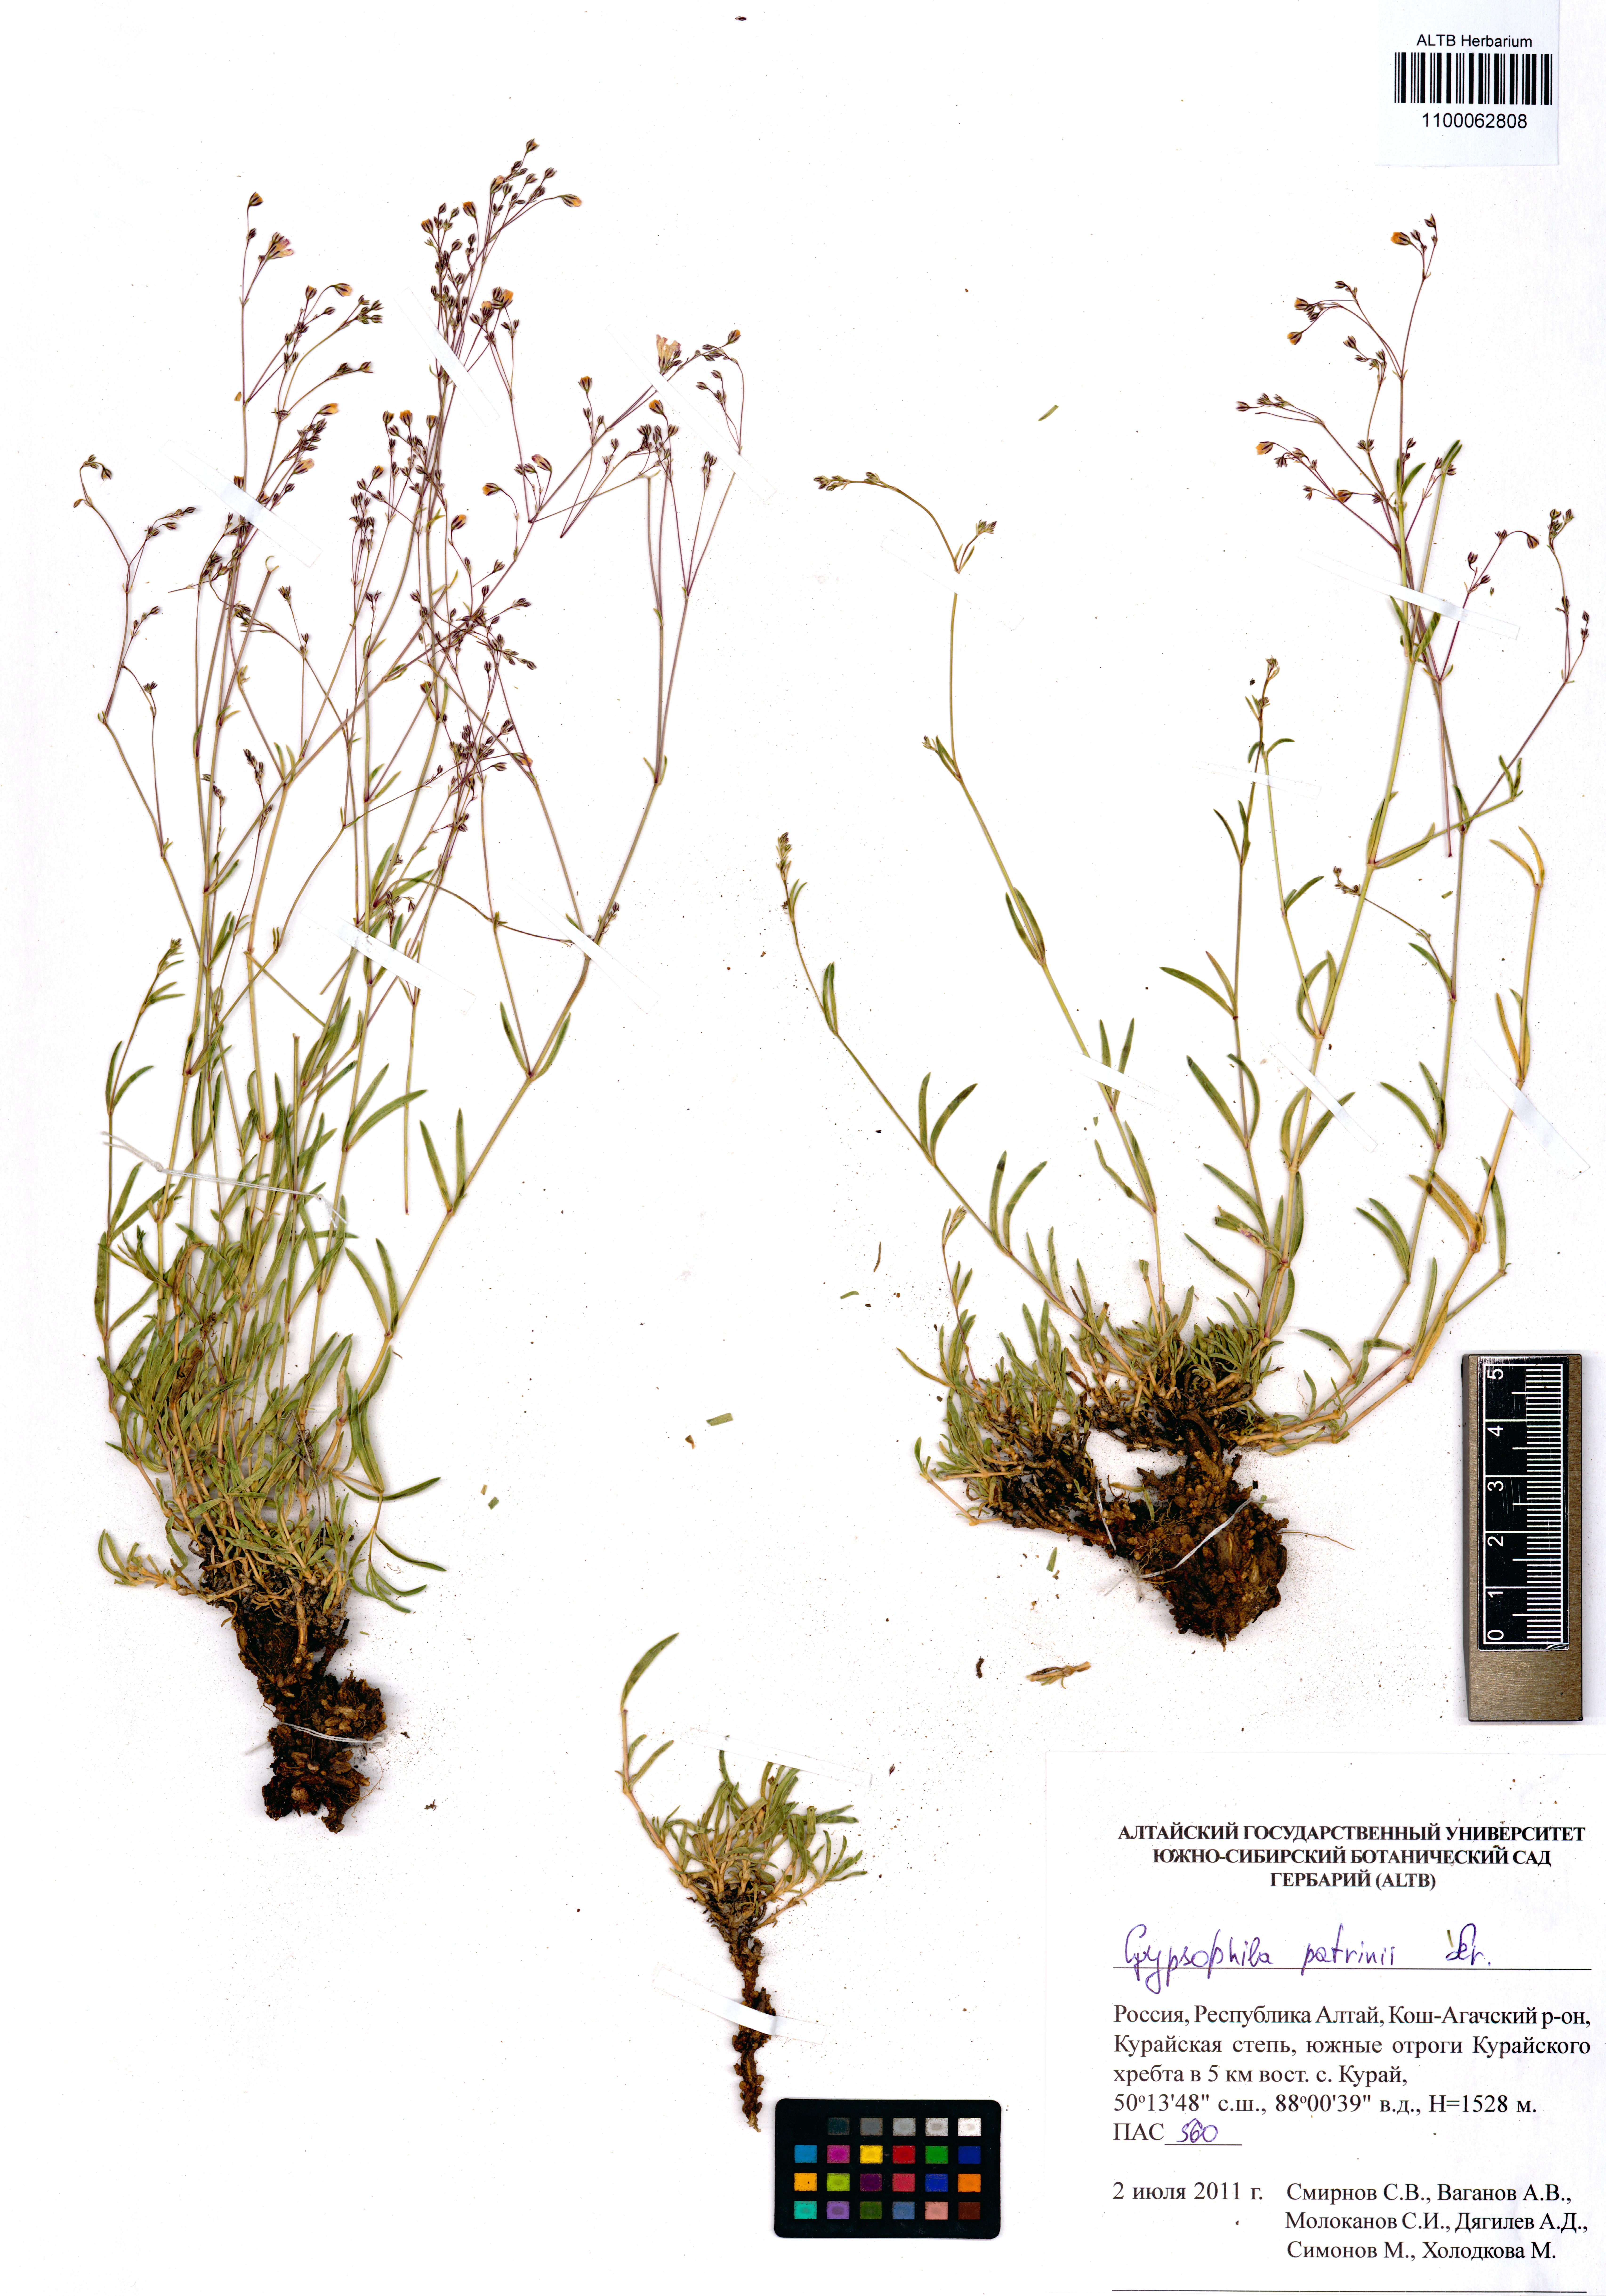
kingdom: Plantae
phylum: Tracheophyta
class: Magnoliopsida
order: Caryophyllales
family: Caryophyllaceae
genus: Gypsophila
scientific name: Gypsophila patrinii
